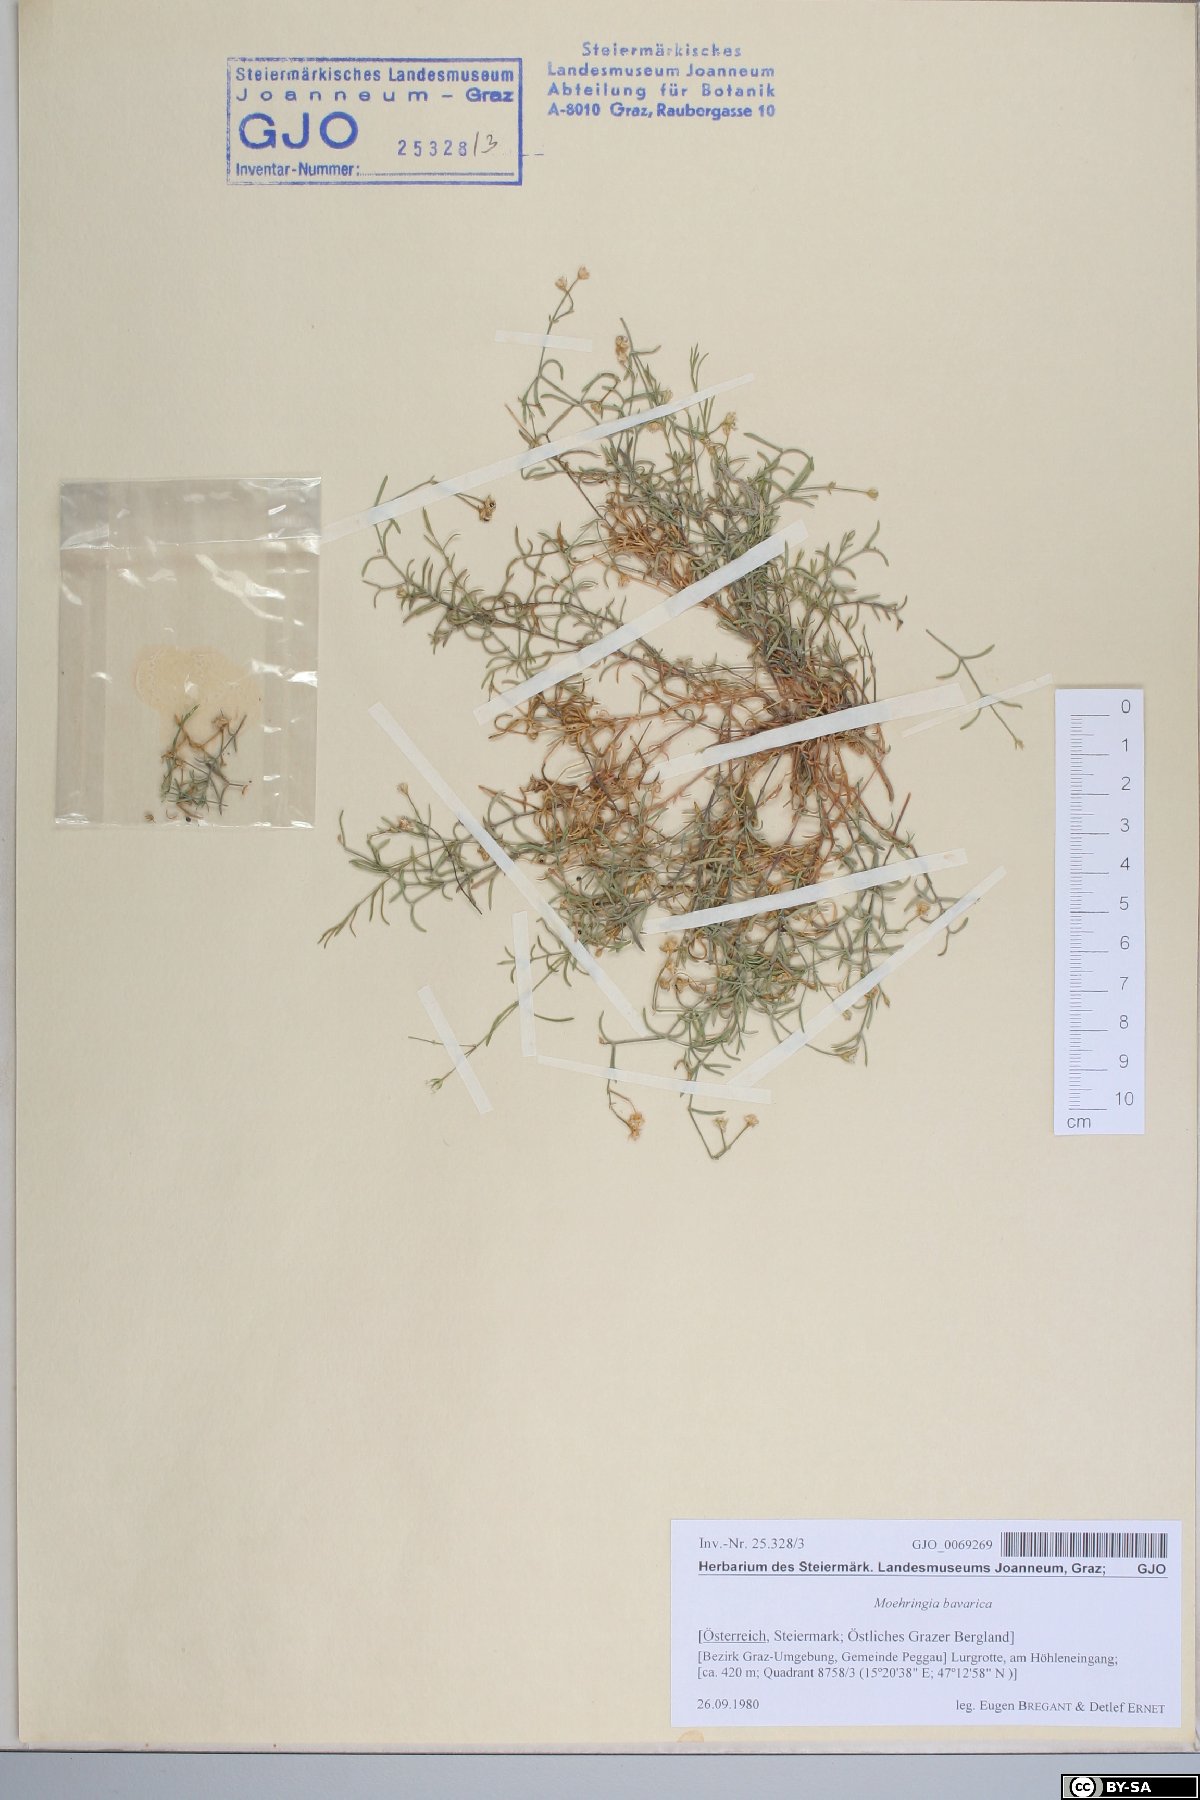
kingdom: Plantae
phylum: Tracheophyta
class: Magnoliopsida
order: Caryophyllales
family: Caryophyllaceae
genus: Moehringia
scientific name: Moehringia bavarica
